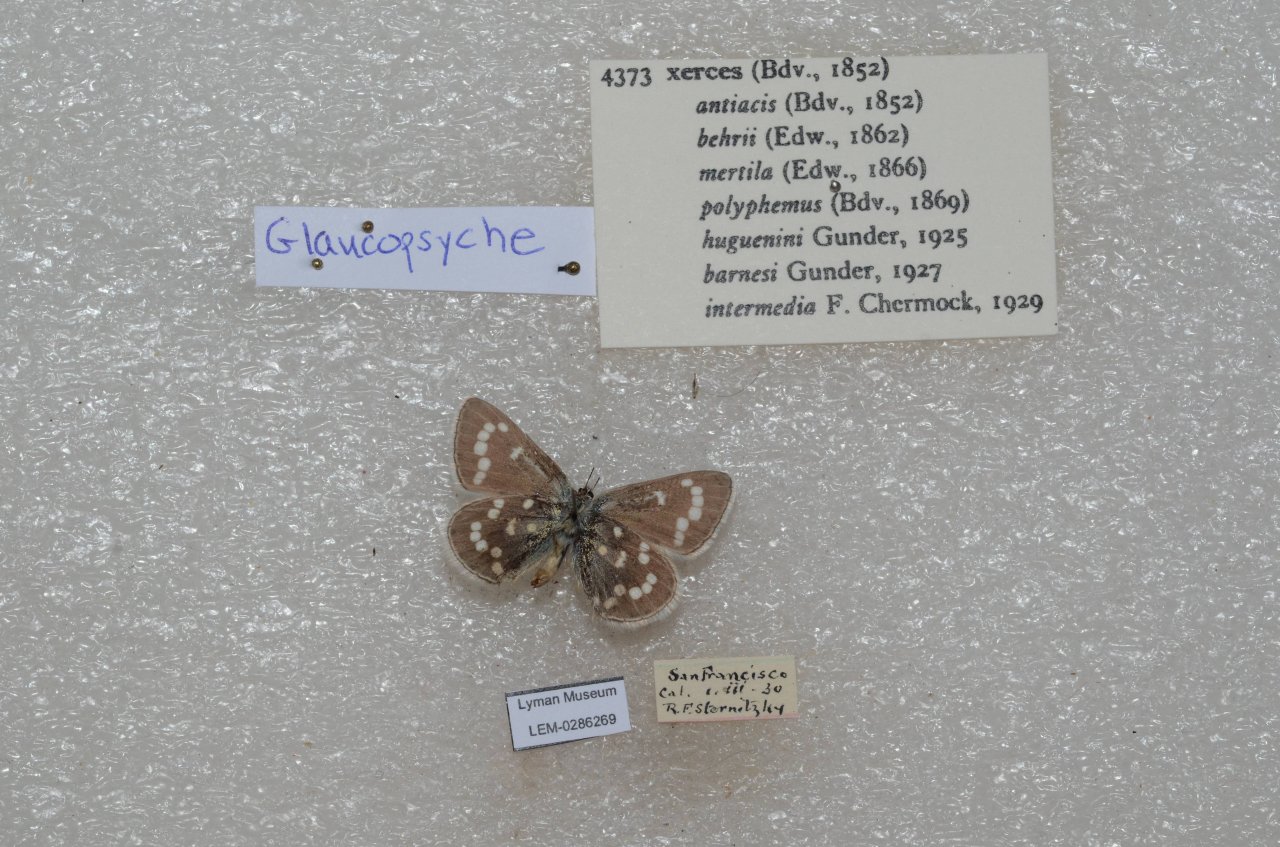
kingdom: Animalia
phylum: Arthropoda
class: Insecta
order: Lepidoptera
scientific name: Lepidoptera
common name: Butterflies
